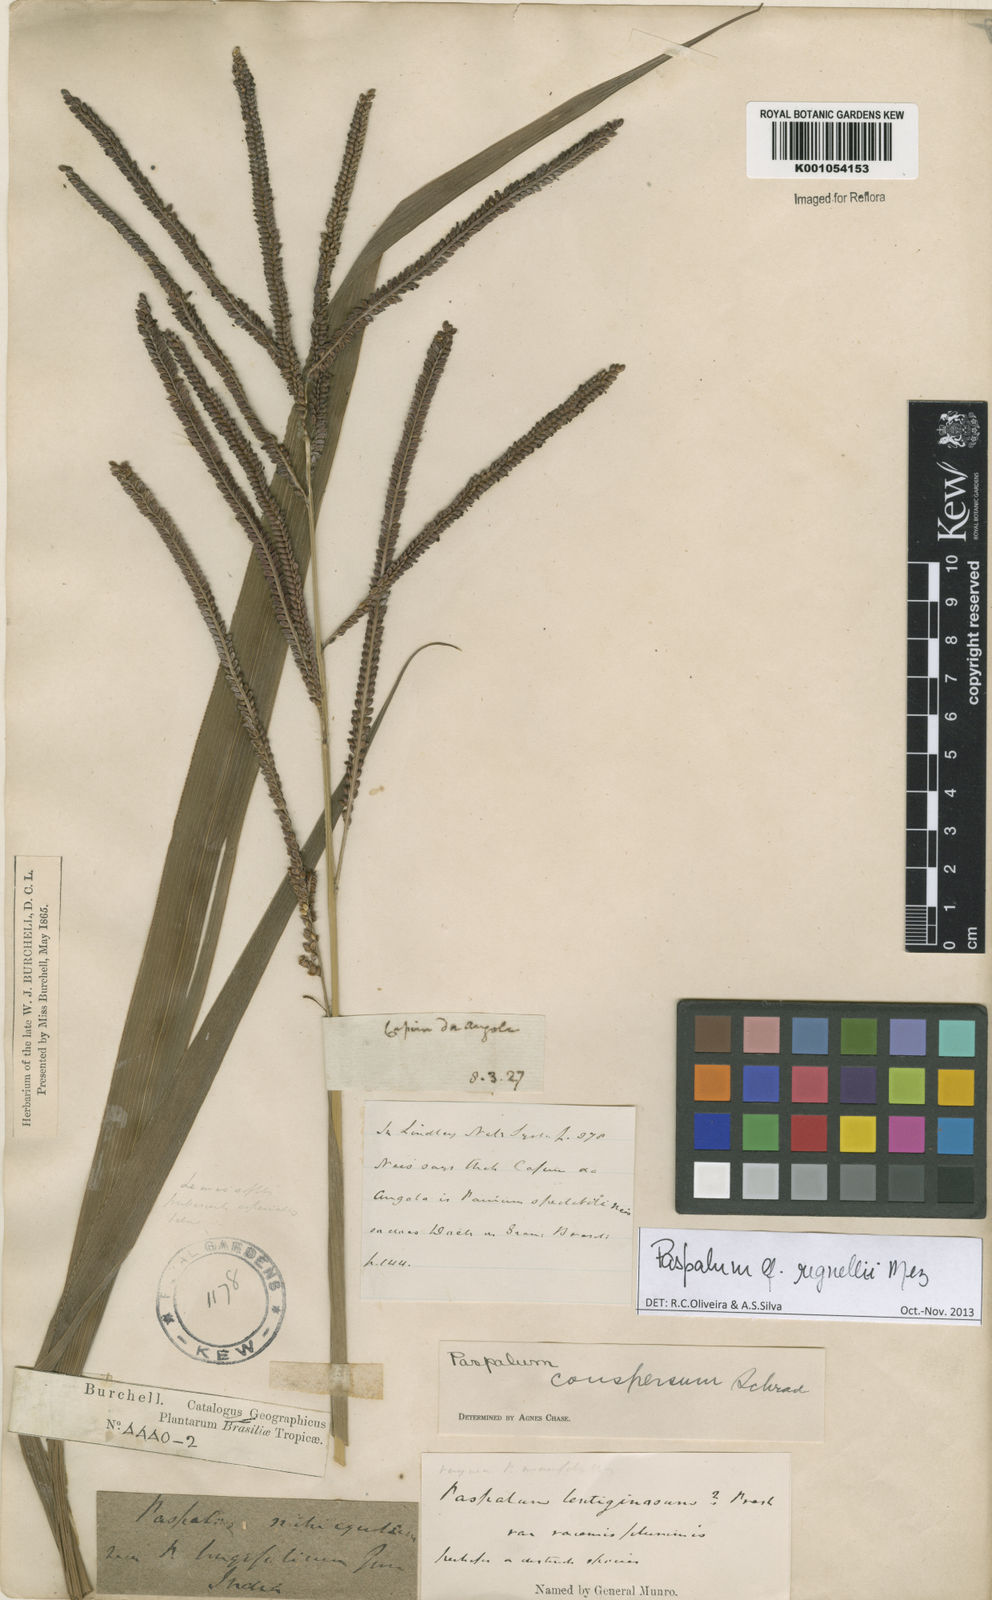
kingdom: Plantae
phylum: Tracheophyta
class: Liliopsida
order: Poales
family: Poaceae
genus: Paspalum
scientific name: Paspalum conspersum
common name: Scattered paspalum
